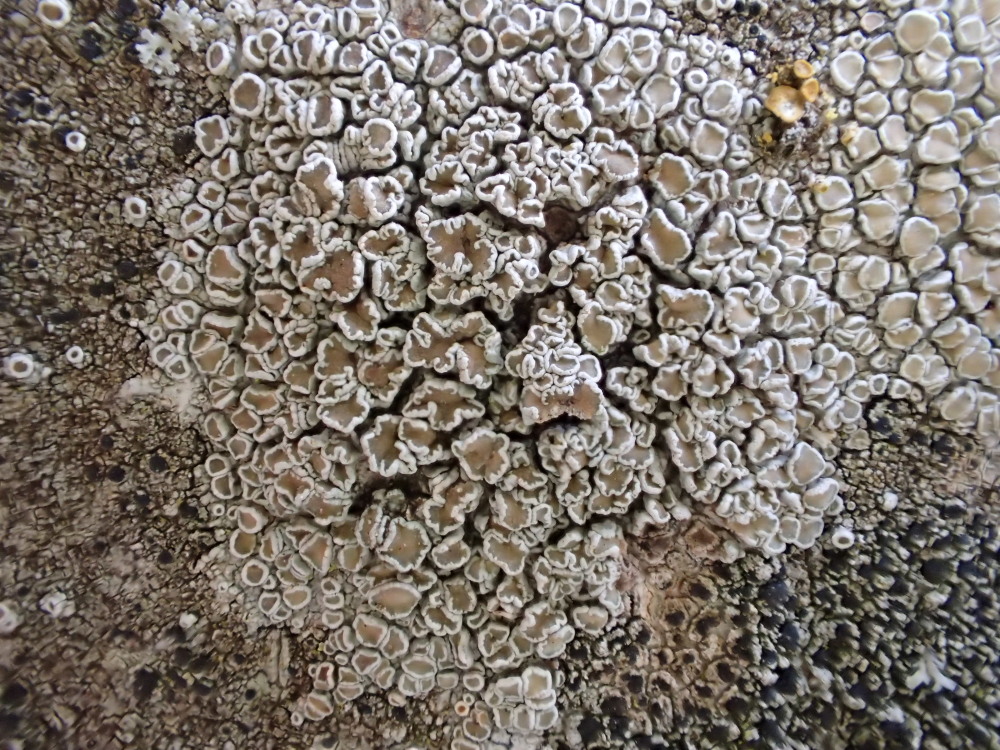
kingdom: Fungi
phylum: Ascomycota
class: Lecanoromycetes
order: Lecanorales
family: Lecanoraceae
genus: Lecanora
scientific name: Lecanora chlarotera
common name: brun kantskivelav
